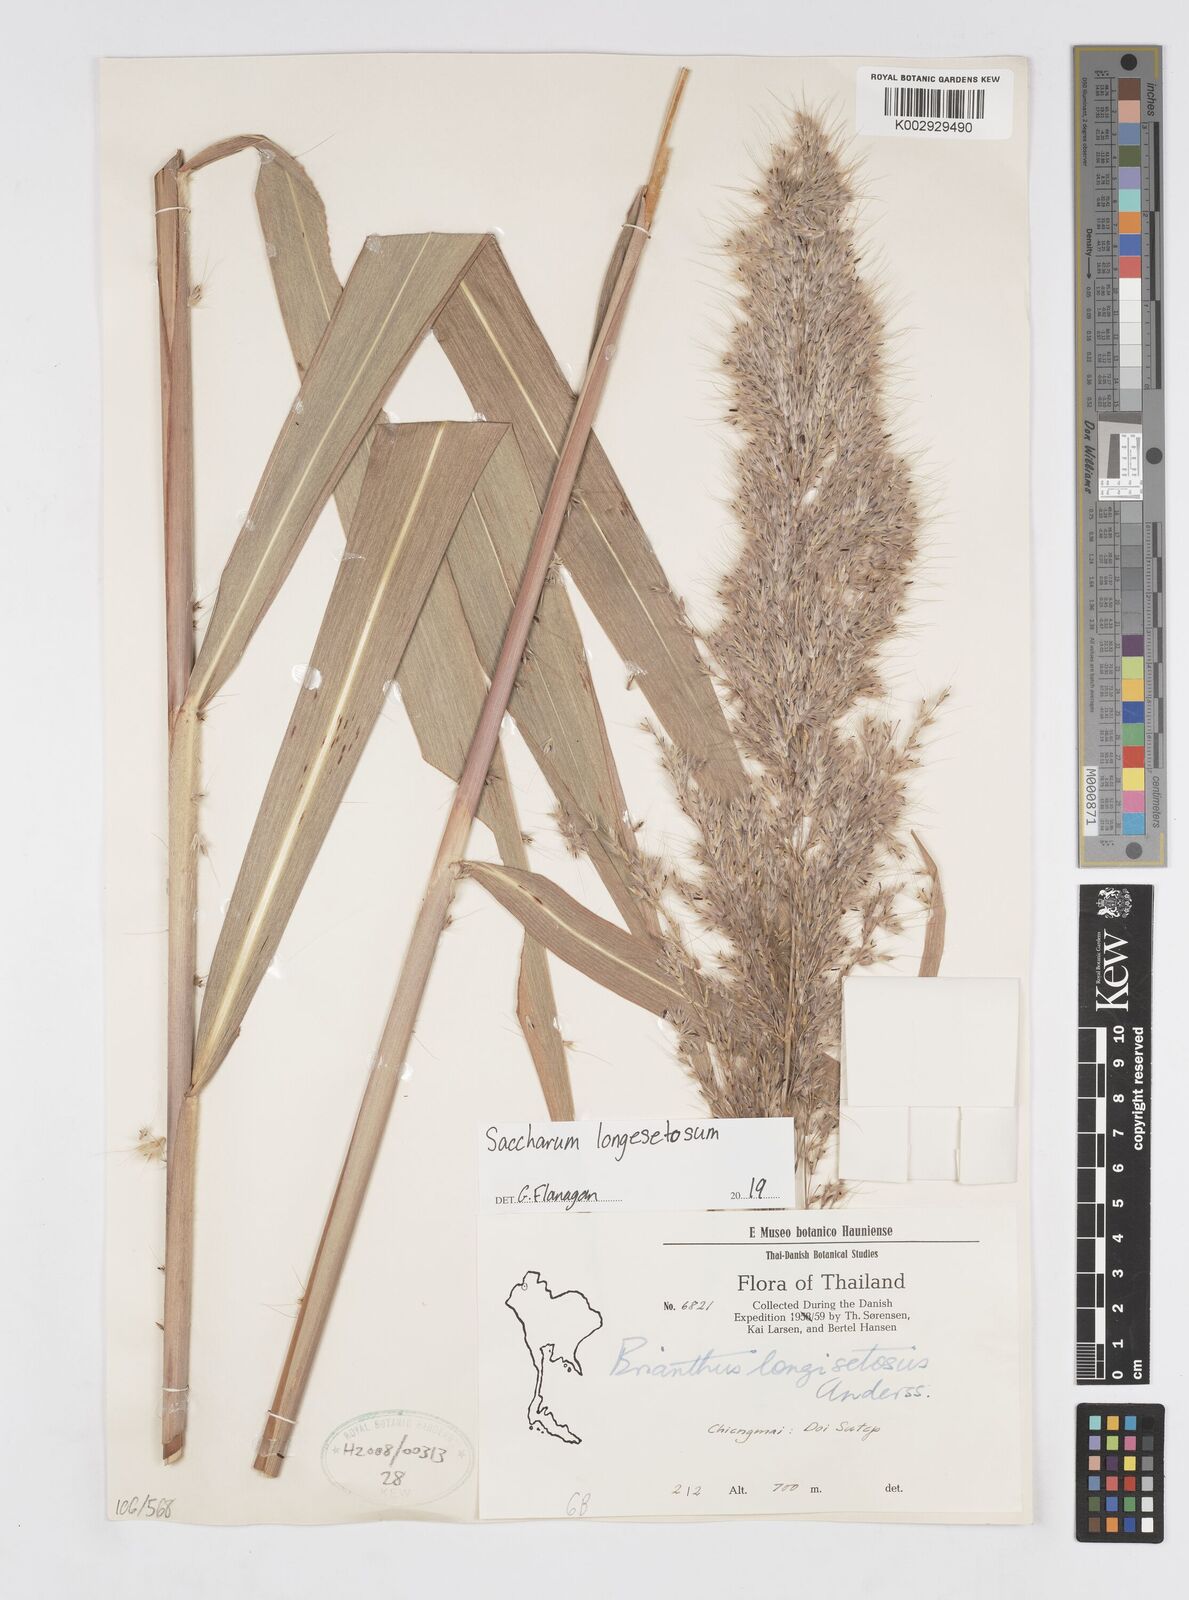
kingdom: Plantae
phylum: Tracheophyta
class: Liliopsida
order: Poales
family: Poaceae
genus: Saccharum
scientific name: Saccharum longesetosum
